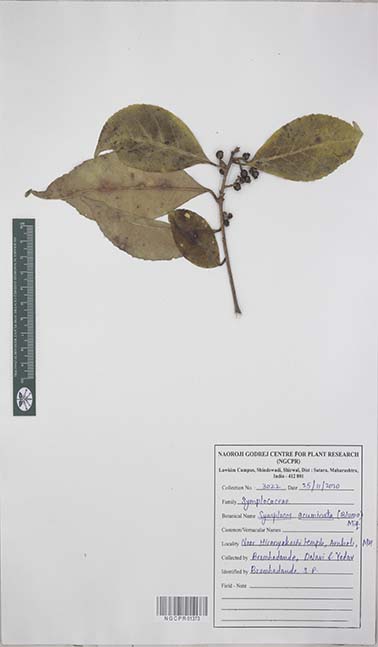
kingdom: Plantae
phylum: Tracheophyta
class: Magnoliopsida
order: Ericales
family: Symplocaceae
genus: Symplocos
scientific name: Symplocos acuminata
